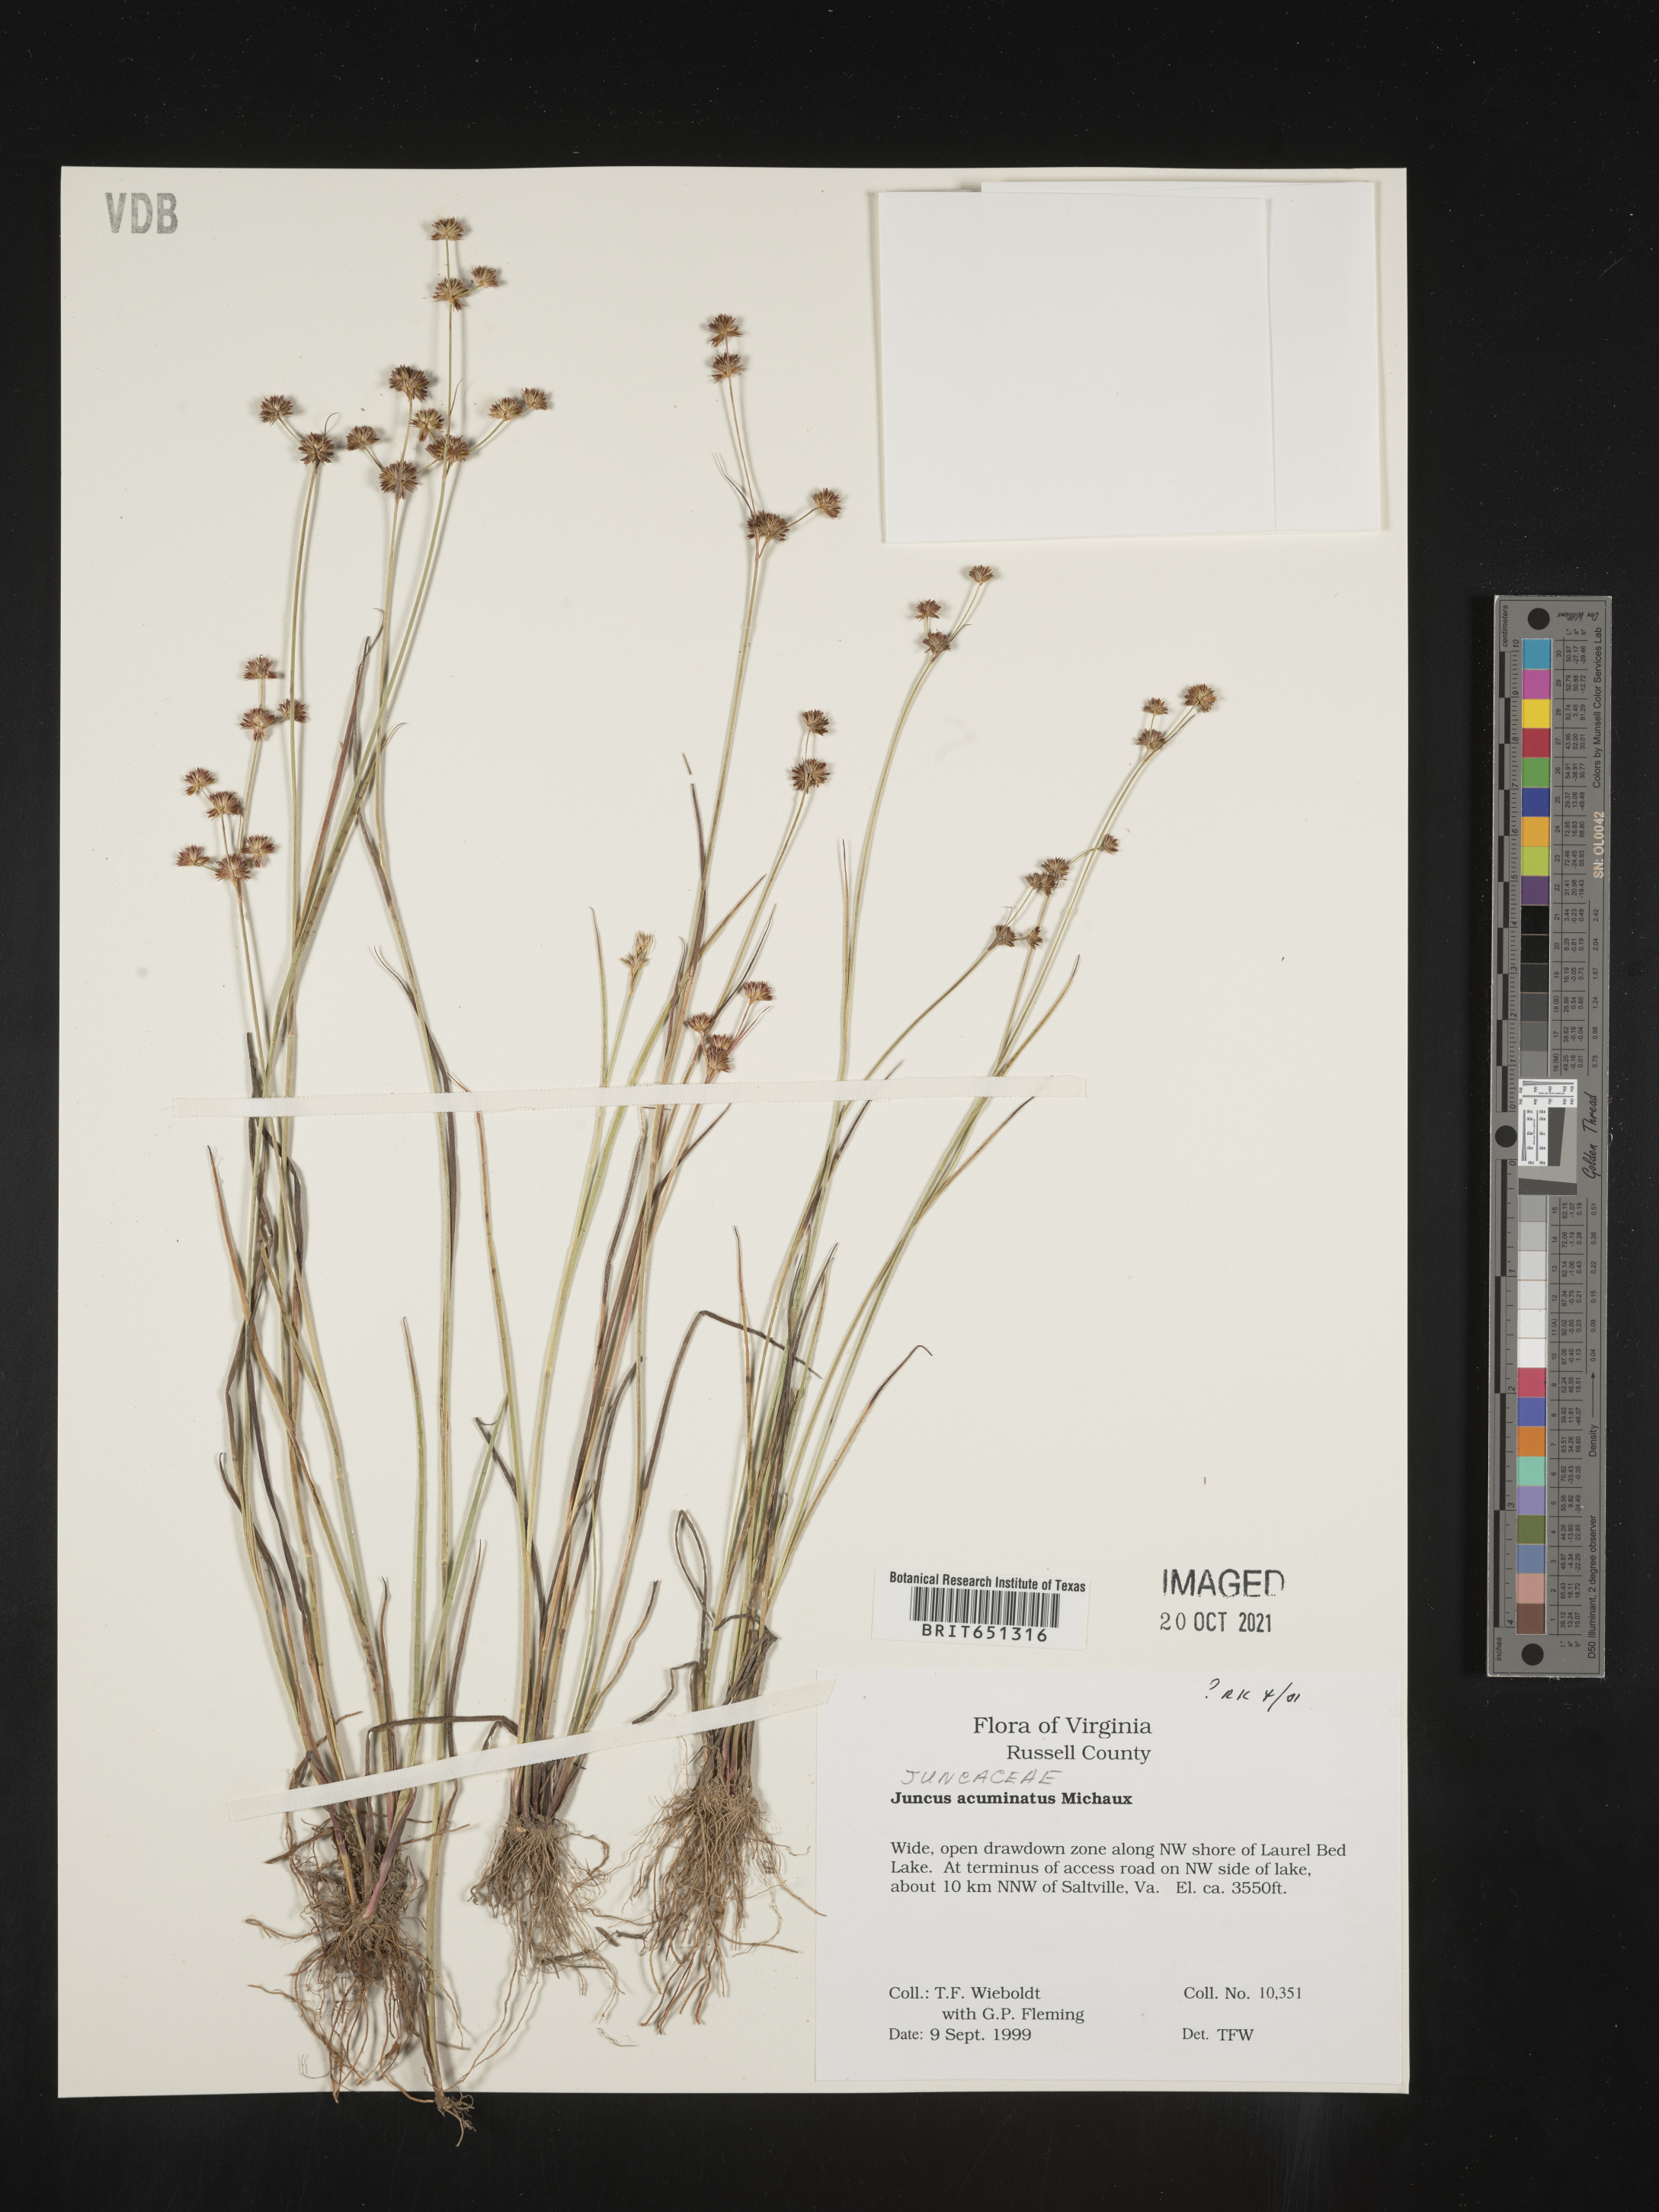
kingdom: Plantae
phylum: Tracheophyta
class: Liliopsida
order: Poales
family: Juncaceae
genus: Juncus
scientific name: Juncus acuminatus
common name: Knotty-leaved rush
